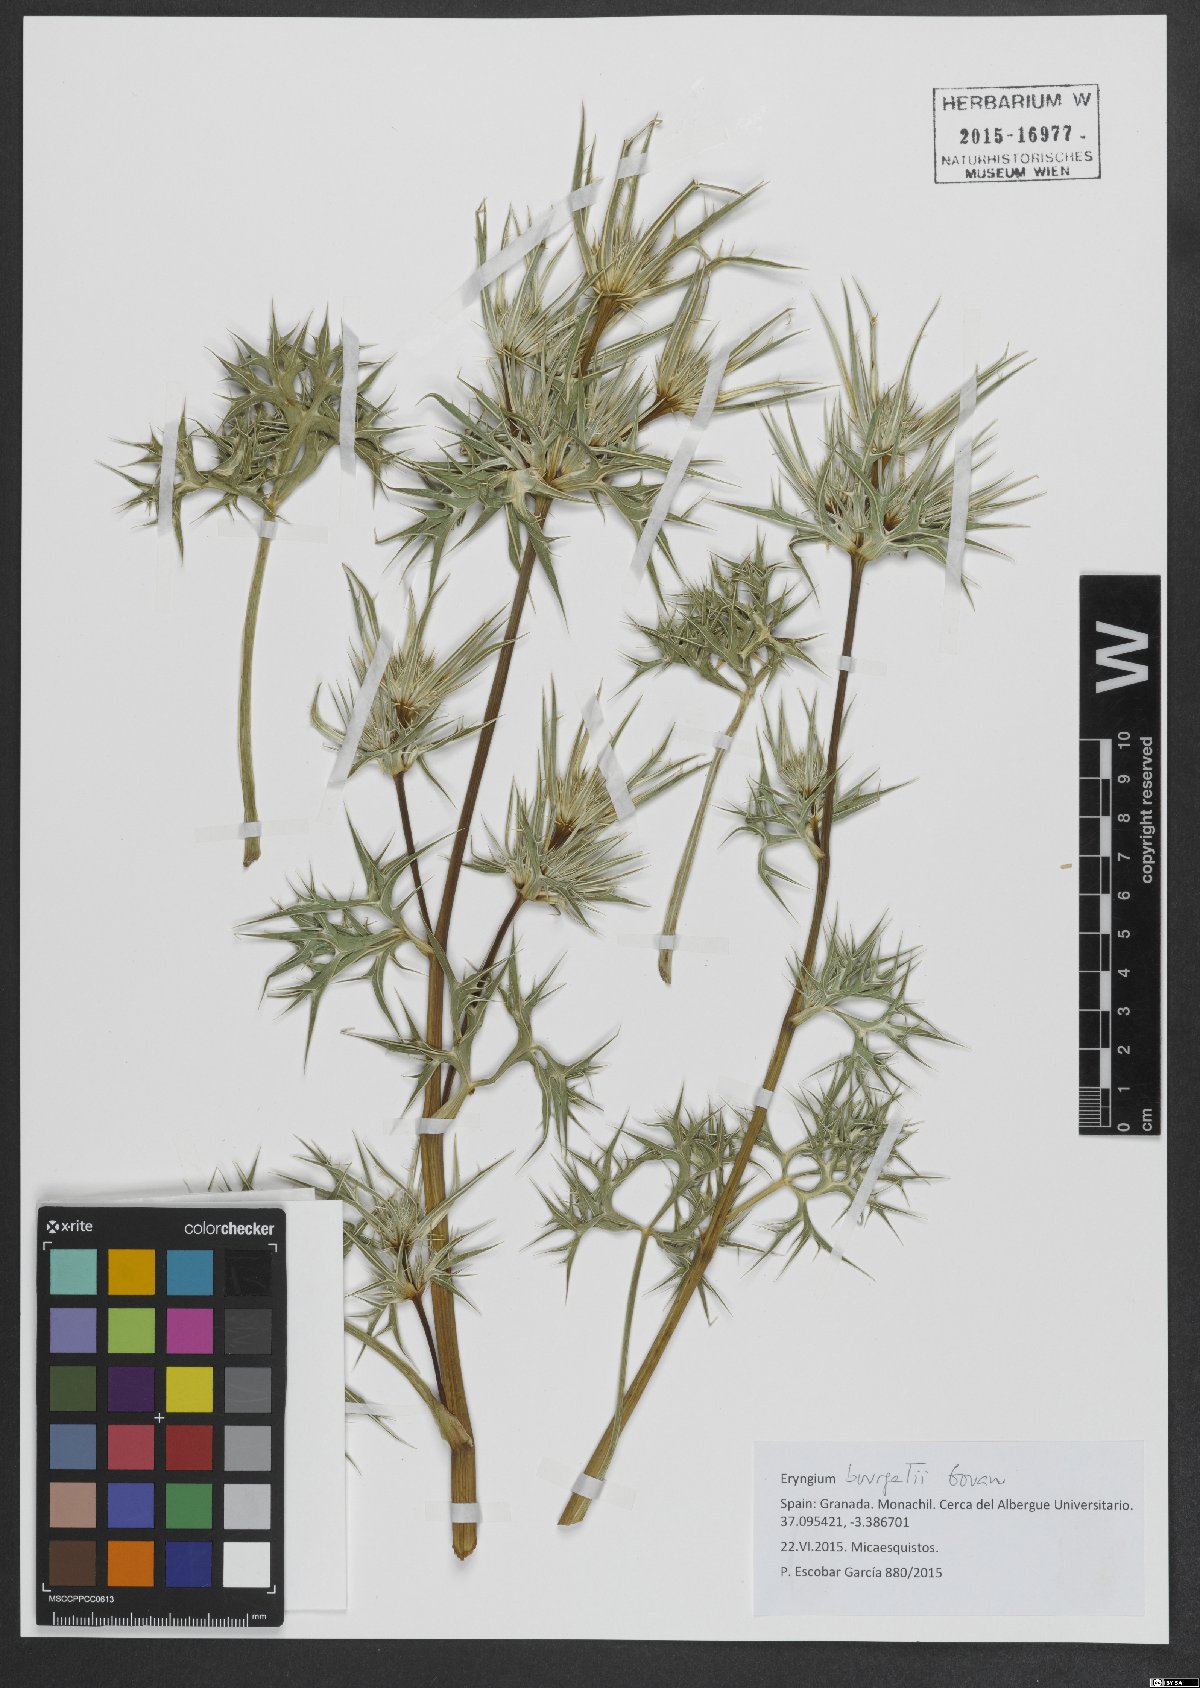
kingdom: Plantae
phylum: Tracheophyta
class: Magnoliopsida
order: Apiales
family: Apiaceae
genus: Eryngium
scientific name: Eryngium bourgatii
